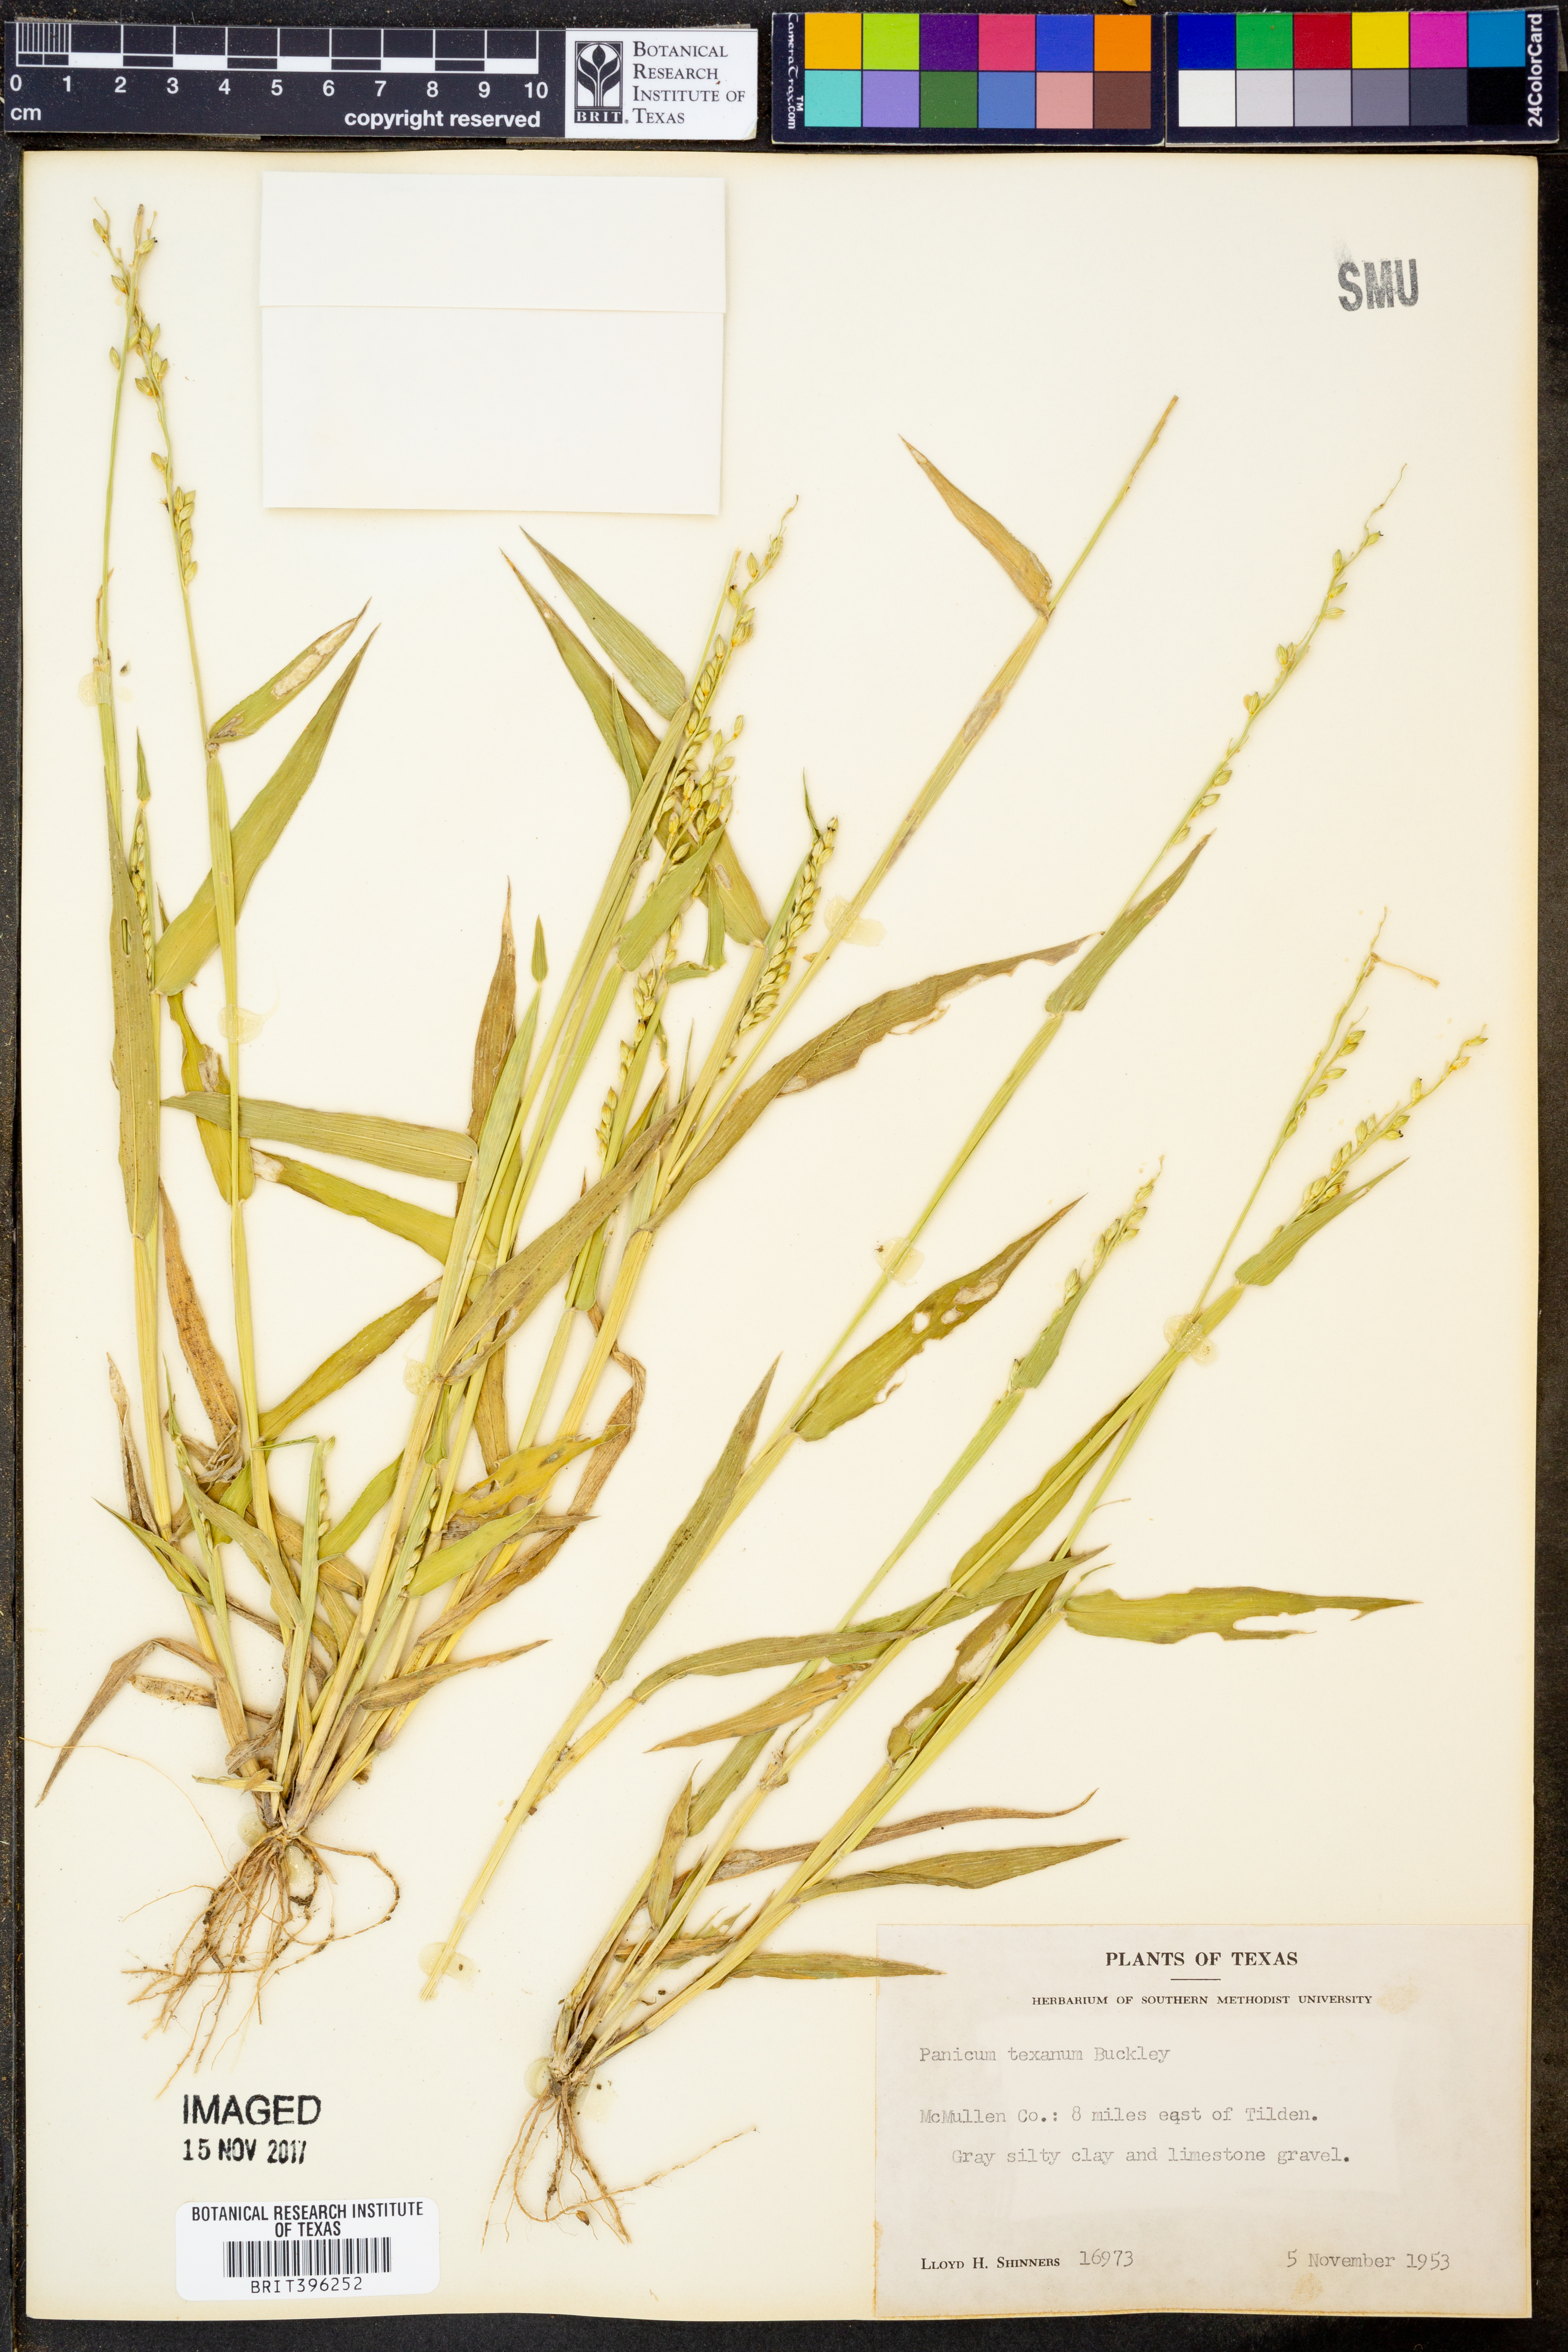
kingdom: Plantae
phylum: Tracheophyta
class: Liliopsida
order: Poales
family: Poaceae
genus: Urochloa
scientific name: Urochloa texana
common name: Texas millet
